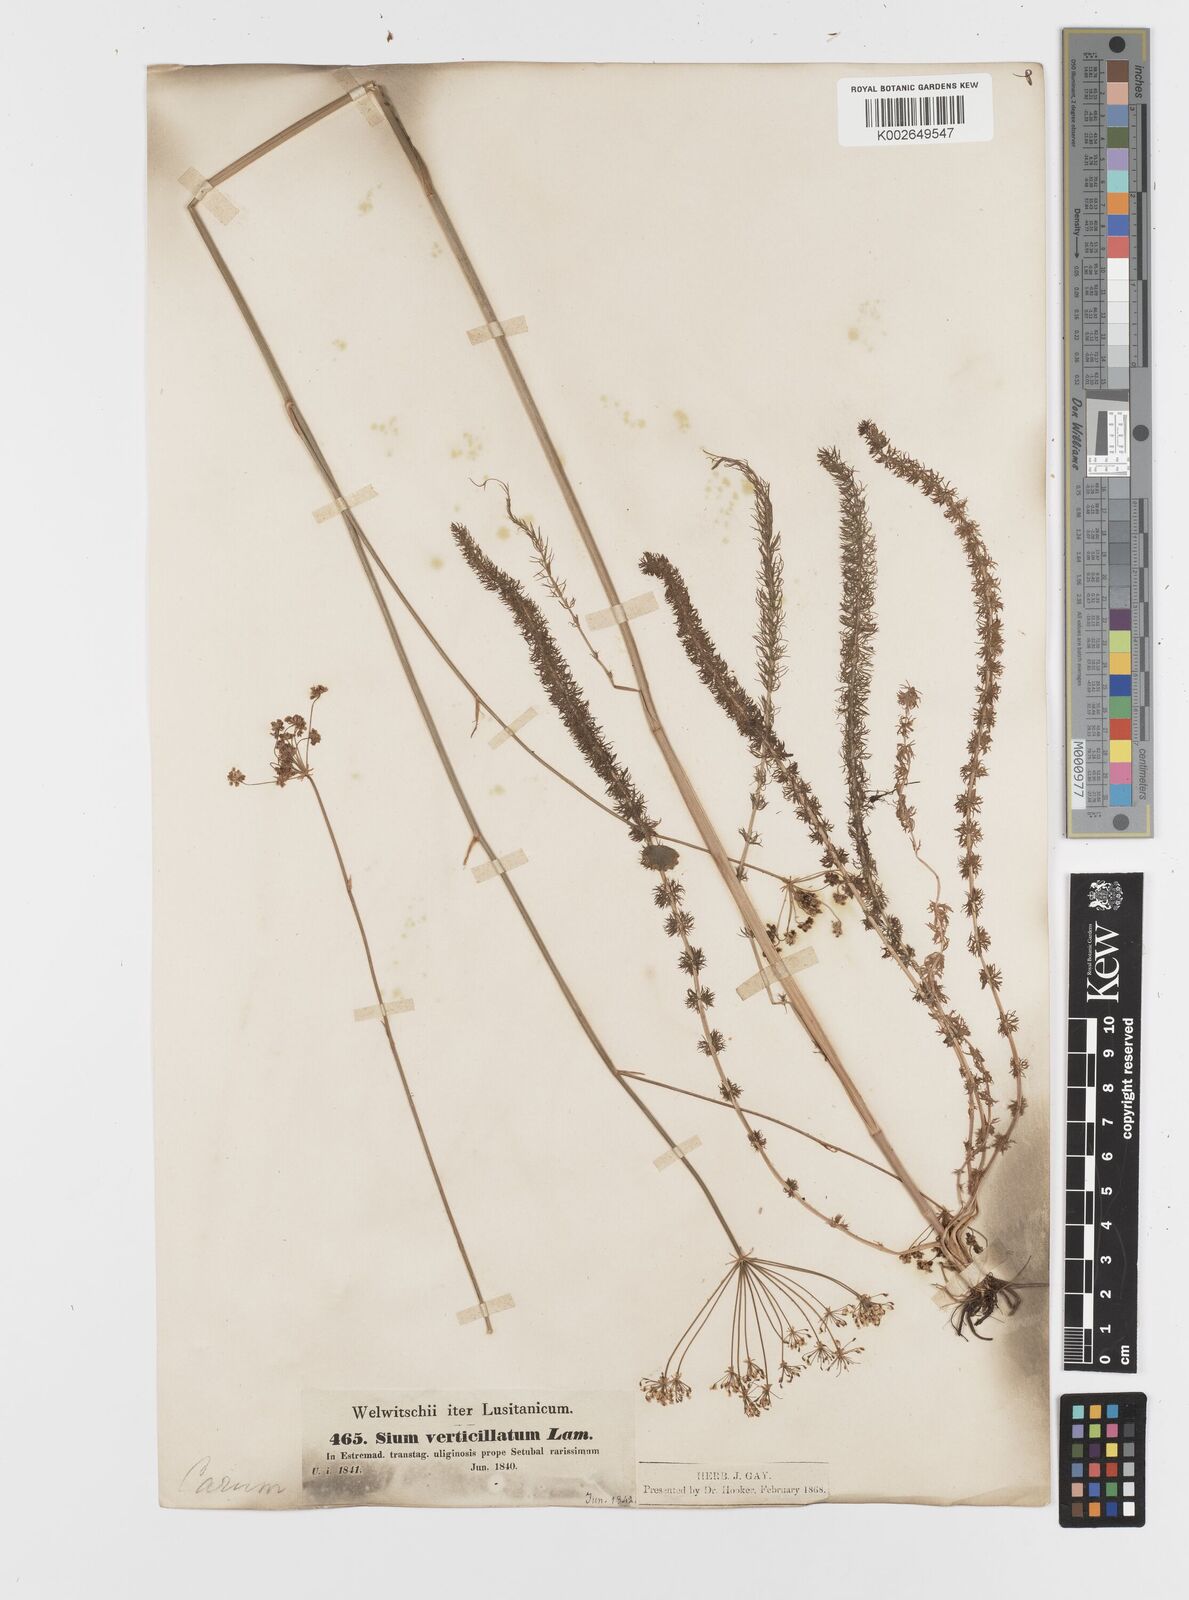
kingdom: Plantae
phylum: Tracheophyta
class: Magnoliopsida
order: Apiales
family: Apiaceae
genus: Trocdaris
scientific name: Trocdaris verticillatum
